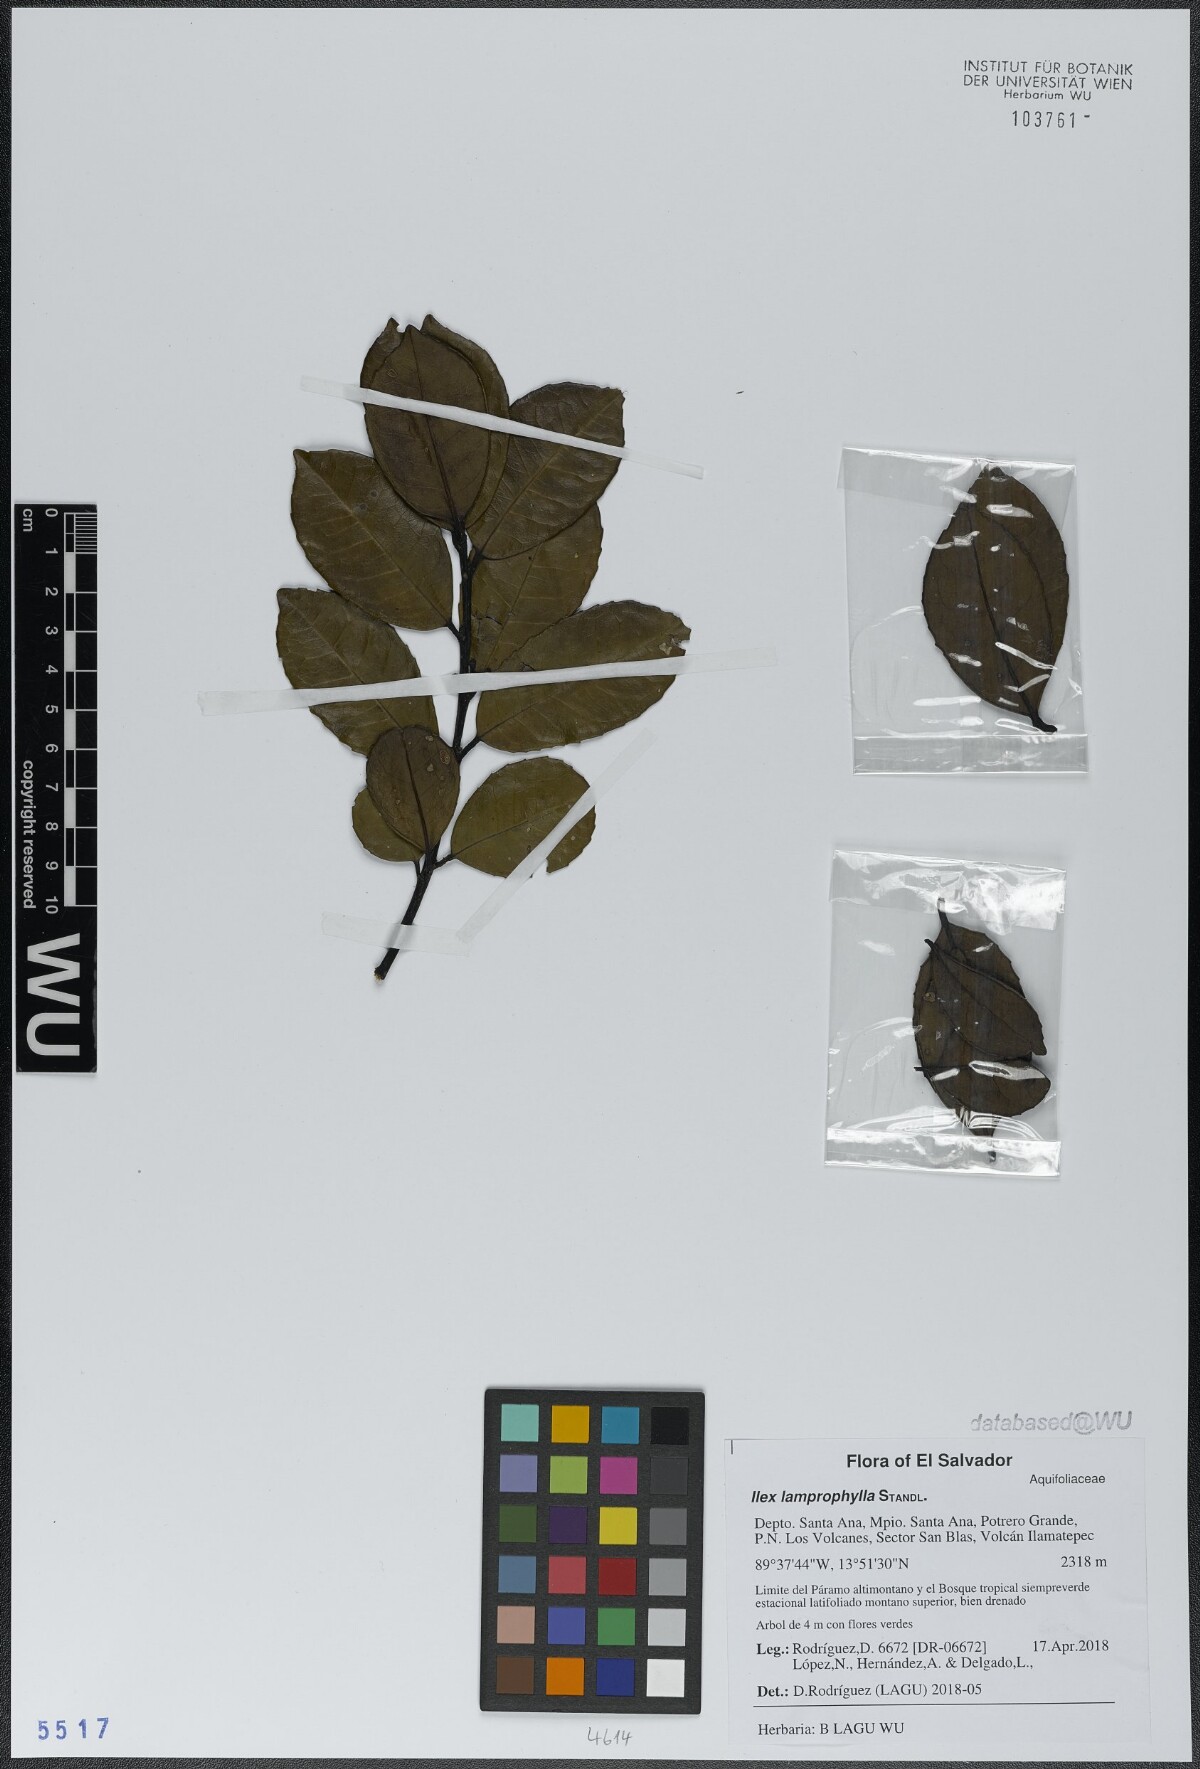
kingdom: Plantae
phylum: Tracheophyta
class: Magnoliopsida
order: Aquifoliales
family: Aquifoliaceae
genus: Ilex
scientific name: Ilex lamprophylla
